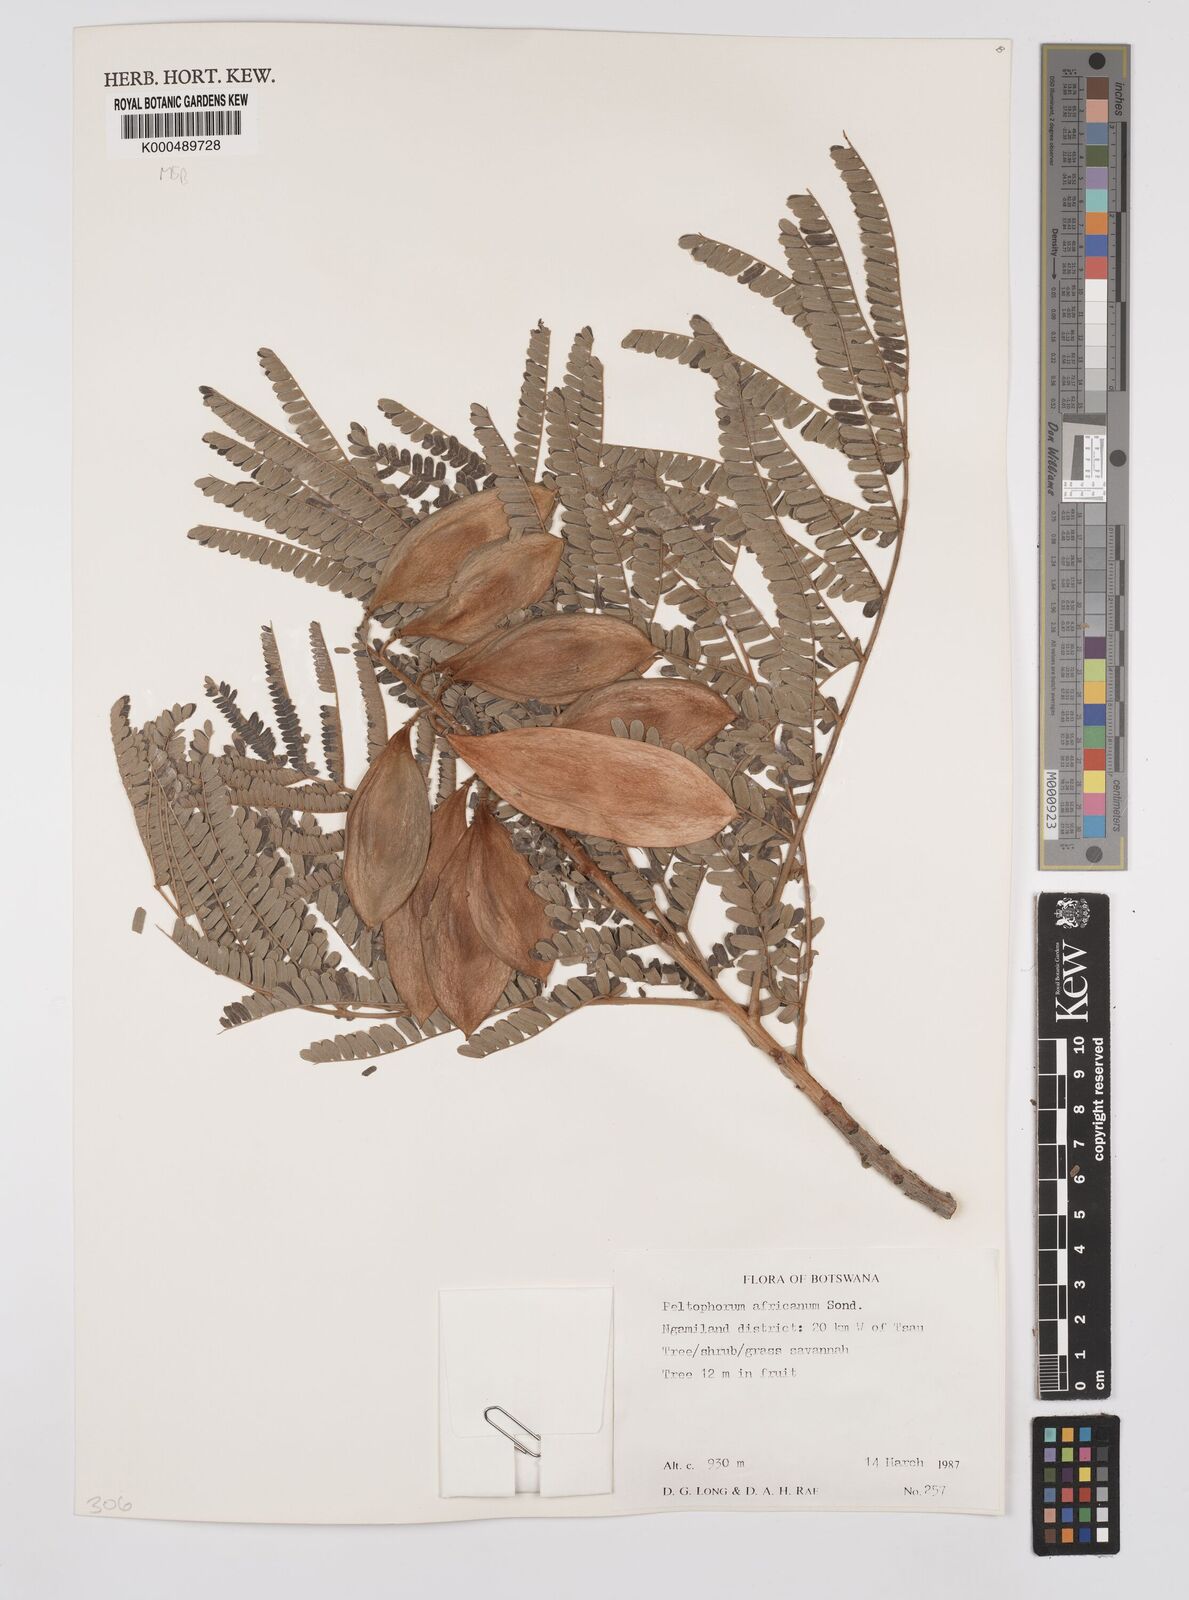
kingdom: Plantae
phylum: Tracheophyta
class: Magnoliopsida
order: Fabales
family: Fabaceae
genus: Peltophorum
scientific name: Peltophorum africanum
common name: African black wattle
